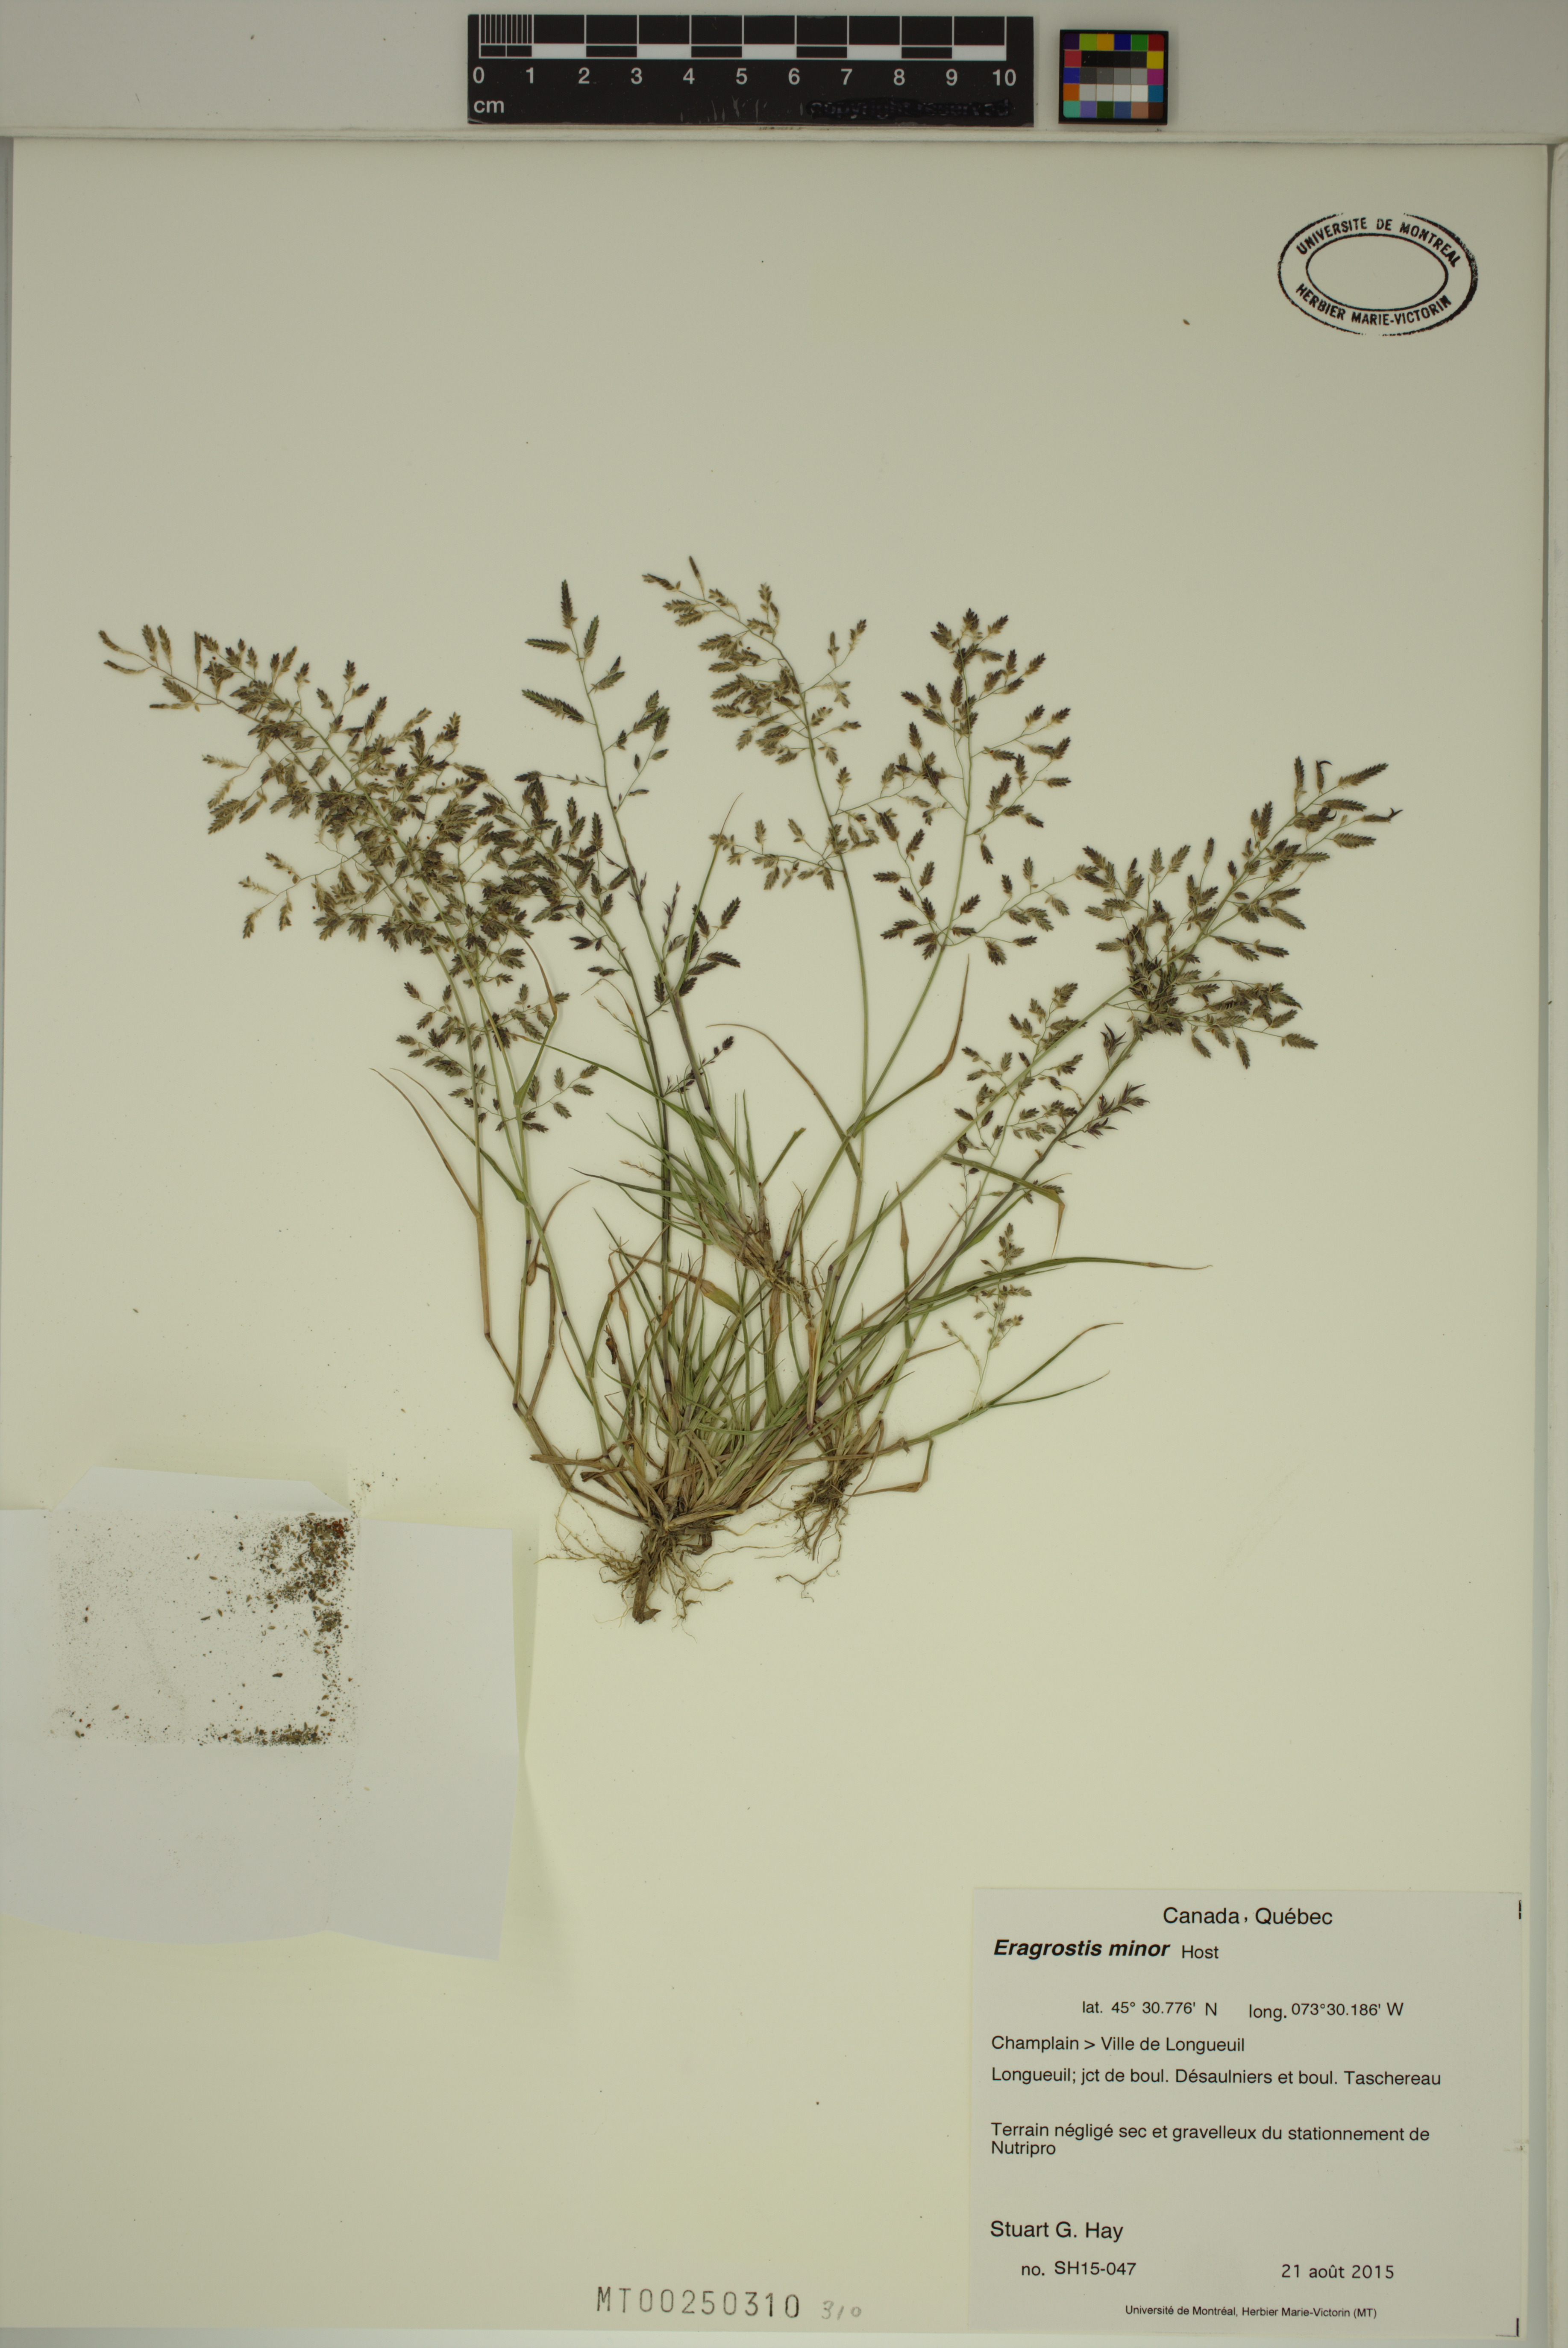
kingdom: Plantae
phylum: Tracheophyta
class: Liliopsida
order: Poales
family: Poaceae
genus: Eragrostis
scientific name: Eragrostis minor
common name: Small love-grass
